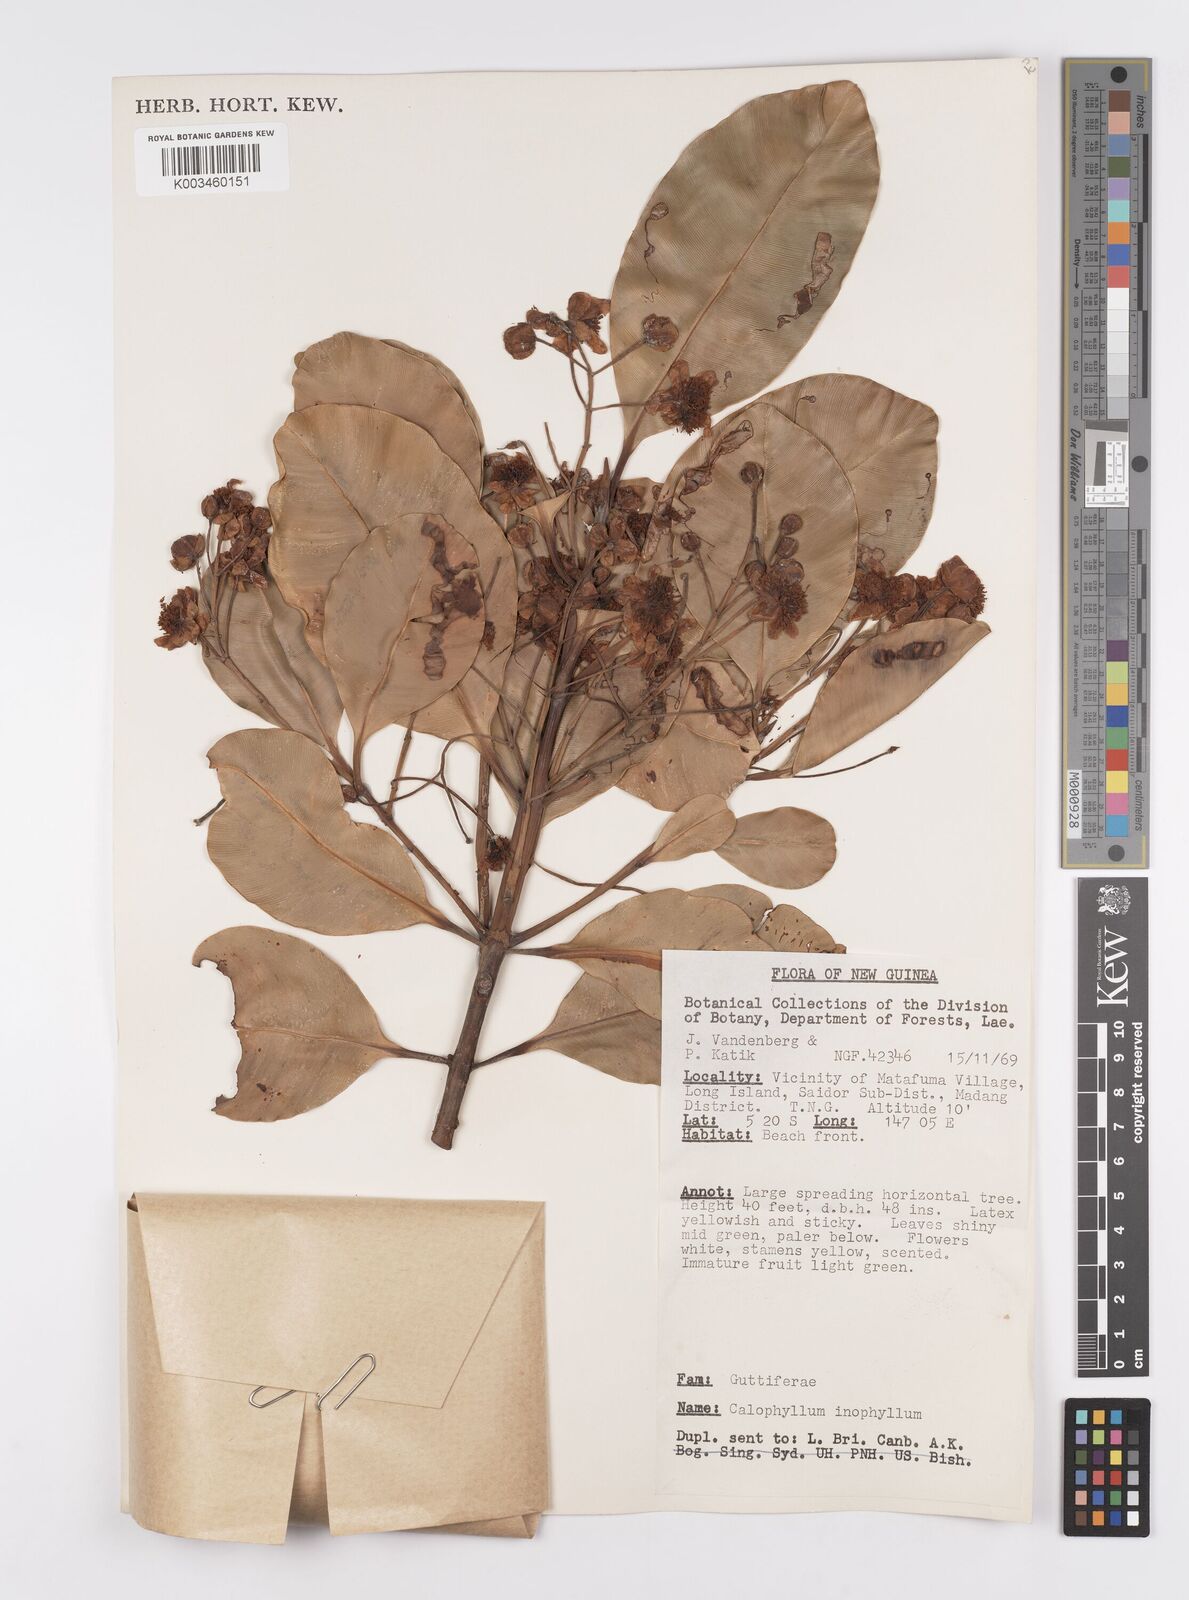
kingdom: Plantae
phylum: Tracheophyta
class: Magnoliopsida
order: Malpighiales
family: Calophyllaceae
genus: Calophyllum
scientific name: Calophyllum inophyllum
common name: Alexandrian laurel
